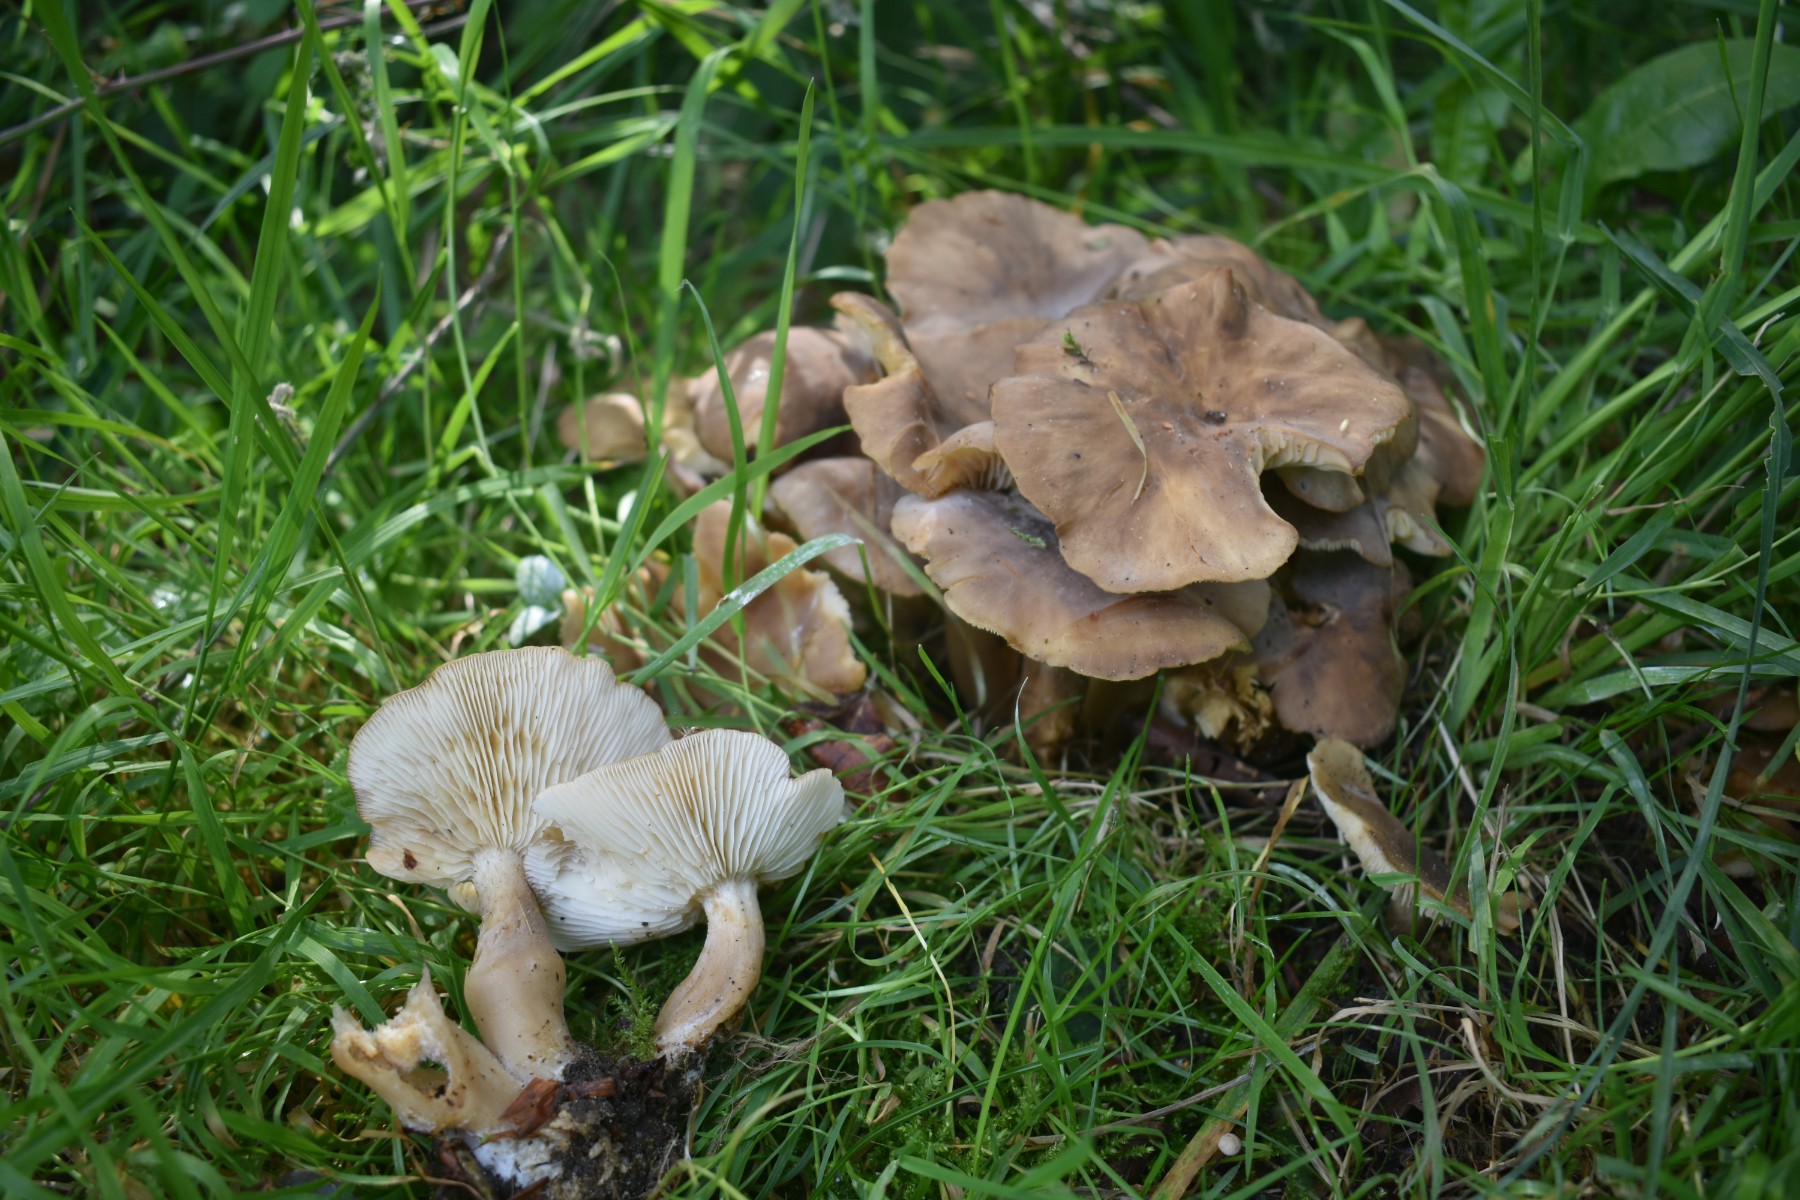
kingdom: Fungi
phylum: Basidiomycota
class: Agaricomycetes
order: Agaricales
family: Lyophyllaceae
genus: Lyophyllum
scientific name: Lyophyllum decastes
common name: røggrå gråblad
